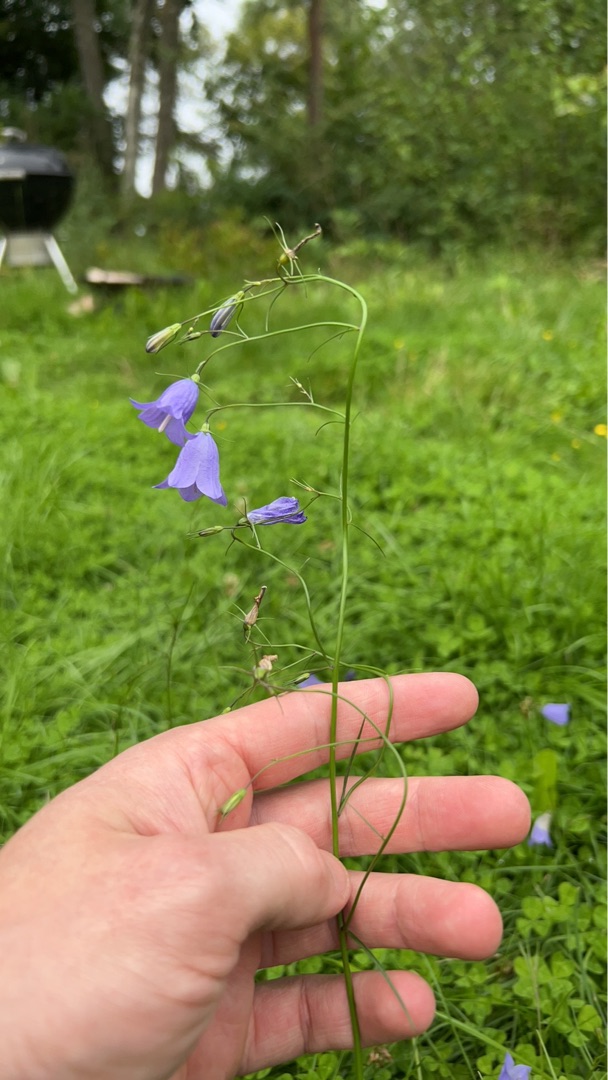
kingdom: Plantae
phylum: Tracheophyta
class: Magnoliopsida
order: Asterales
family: Campanulaceae
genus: Campanula
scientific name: Campanula rotundifolia
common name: Liden klokke
